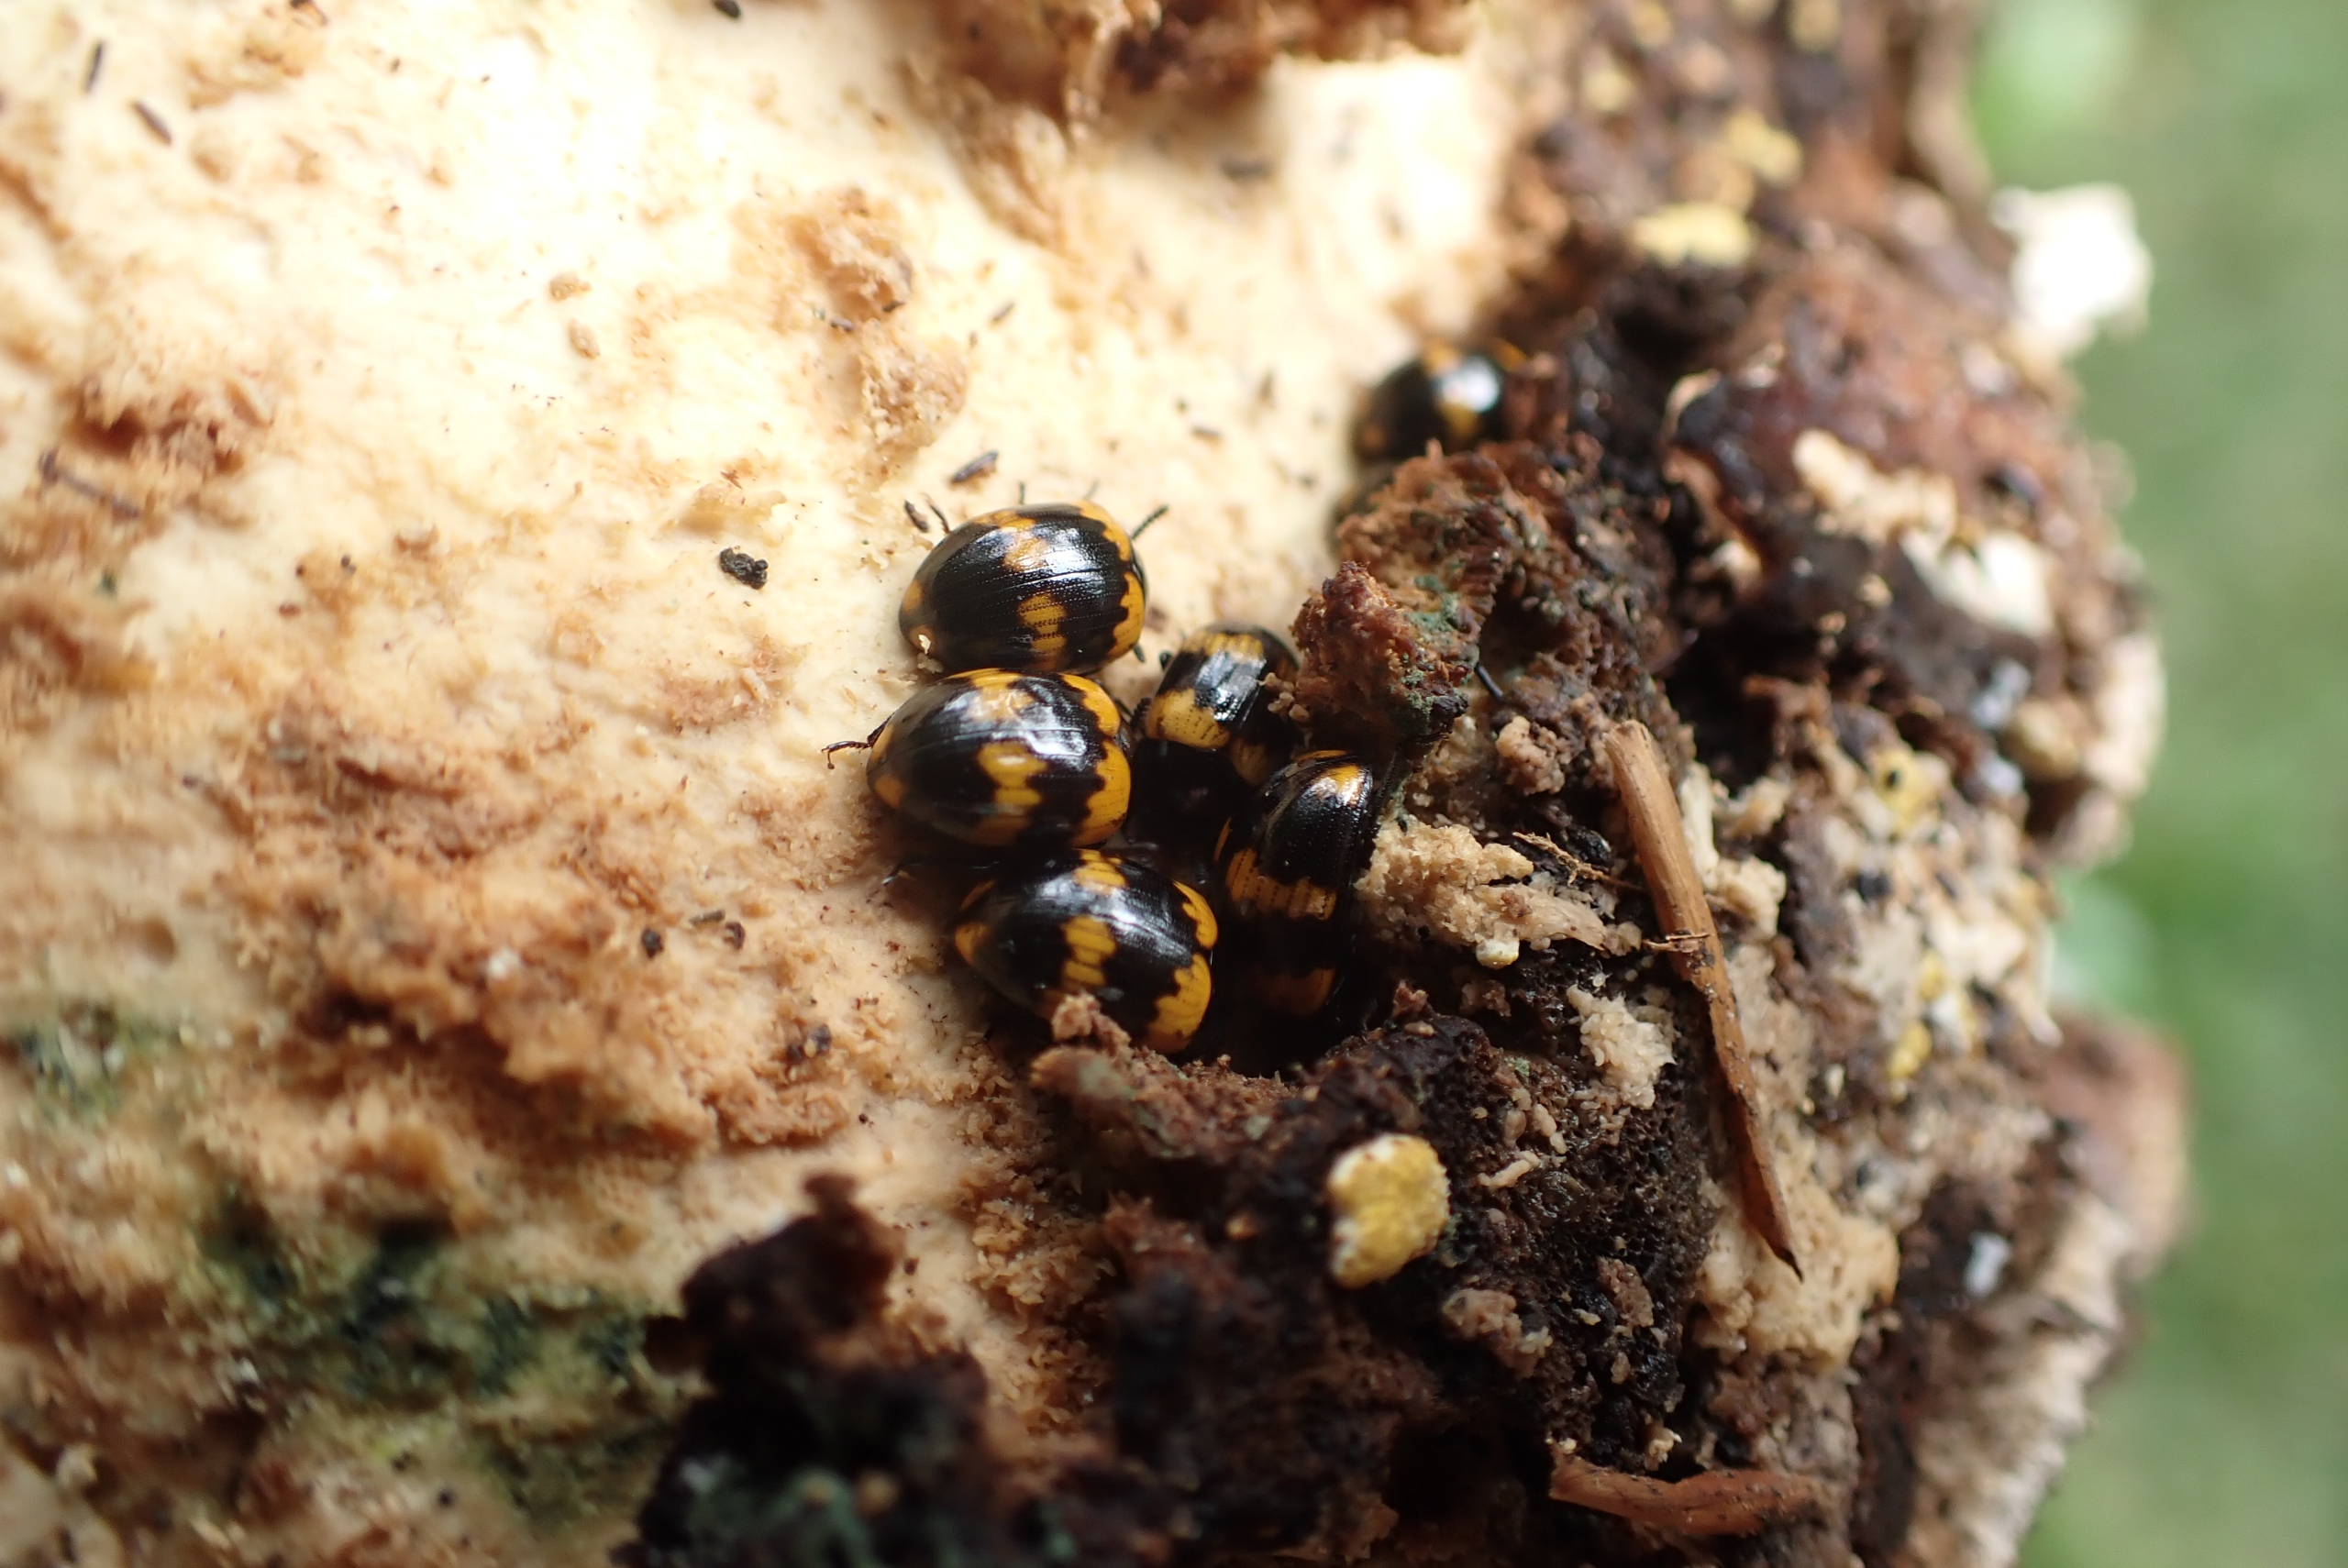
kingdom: Animalia
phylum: Arthropoda
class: Insecta
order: Coleoptera
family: Tenebrionidae
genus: Diaperis
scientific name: Diaperis boleti
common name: Tigerskyggebille
